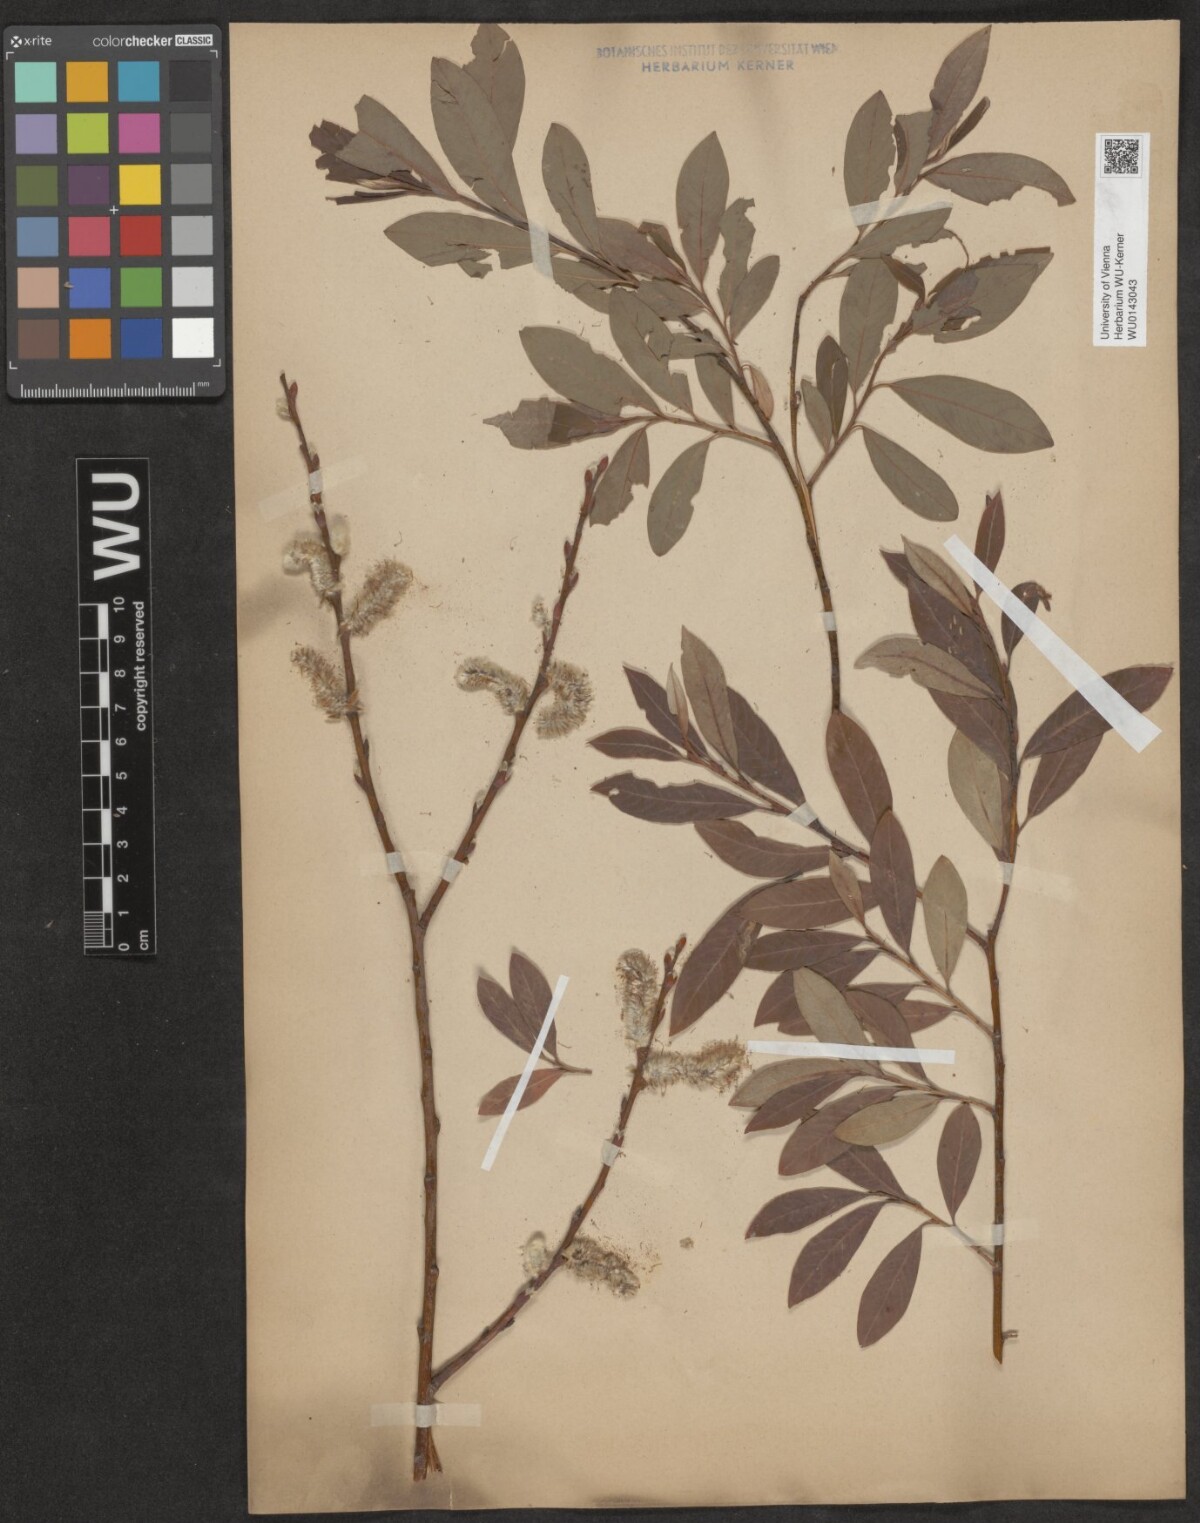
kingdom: Plantae
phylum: Tracheophyta
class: Magnoliopsida
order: Malpighiales
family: Salicaceae
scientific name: Salicaceae
